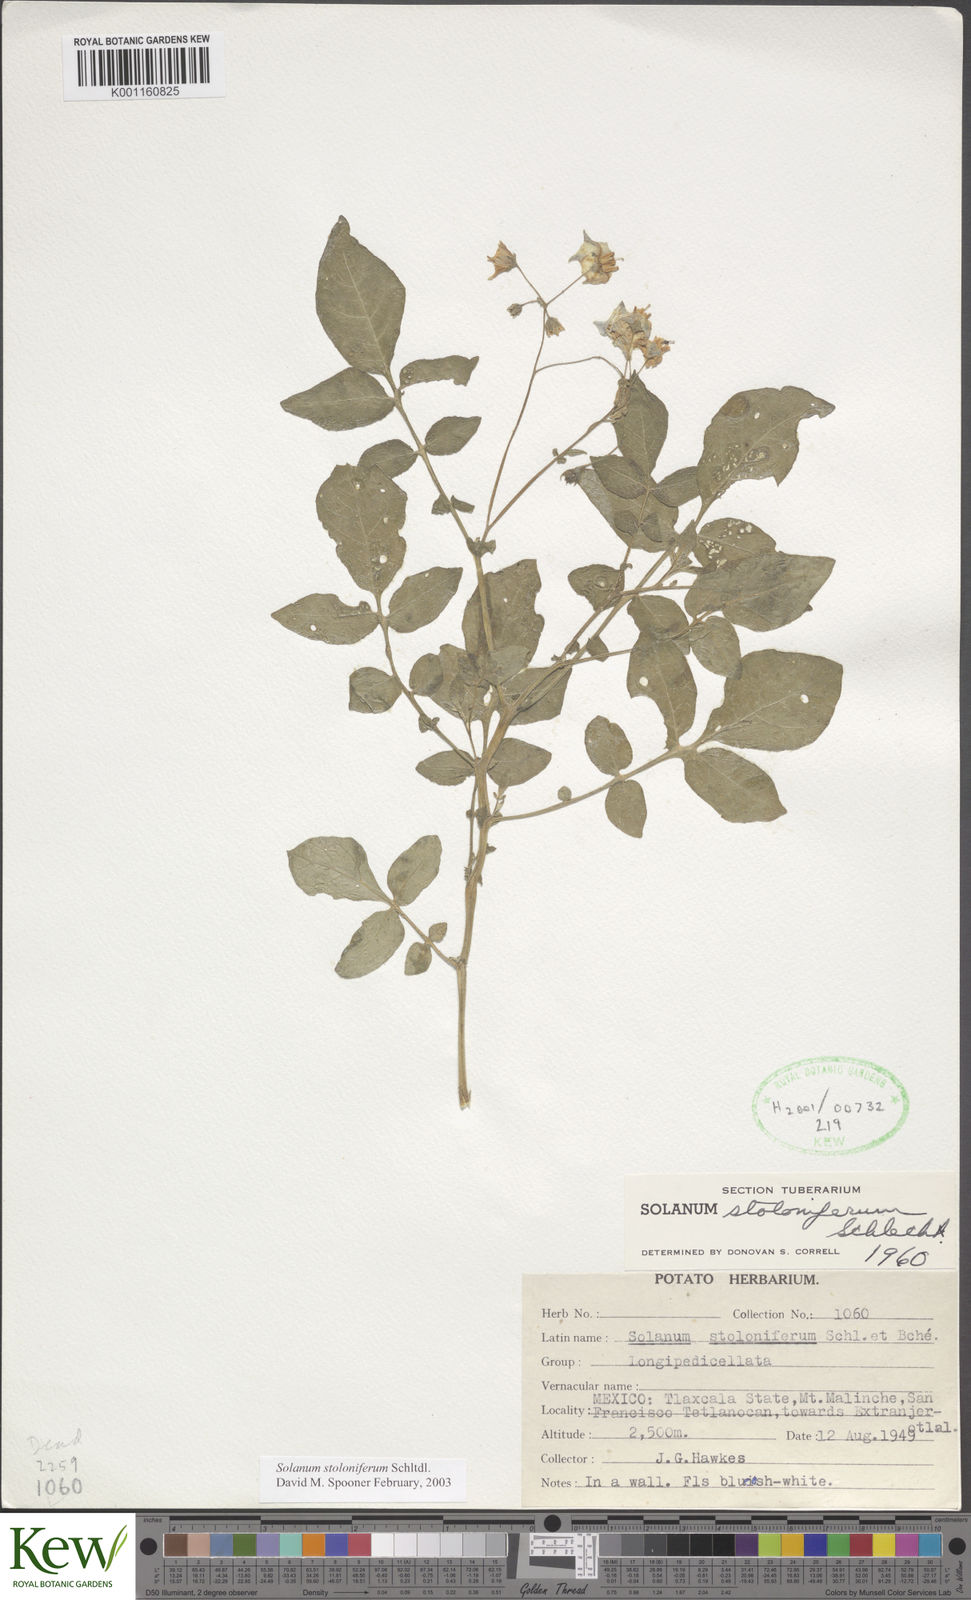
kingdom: Plantae
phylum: Tracheophyta
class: Magnoliopsida
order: Solanales
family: Solanaceae
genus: Solanum
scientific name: Solanum stoloniferum
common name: Fendler's nighshade
